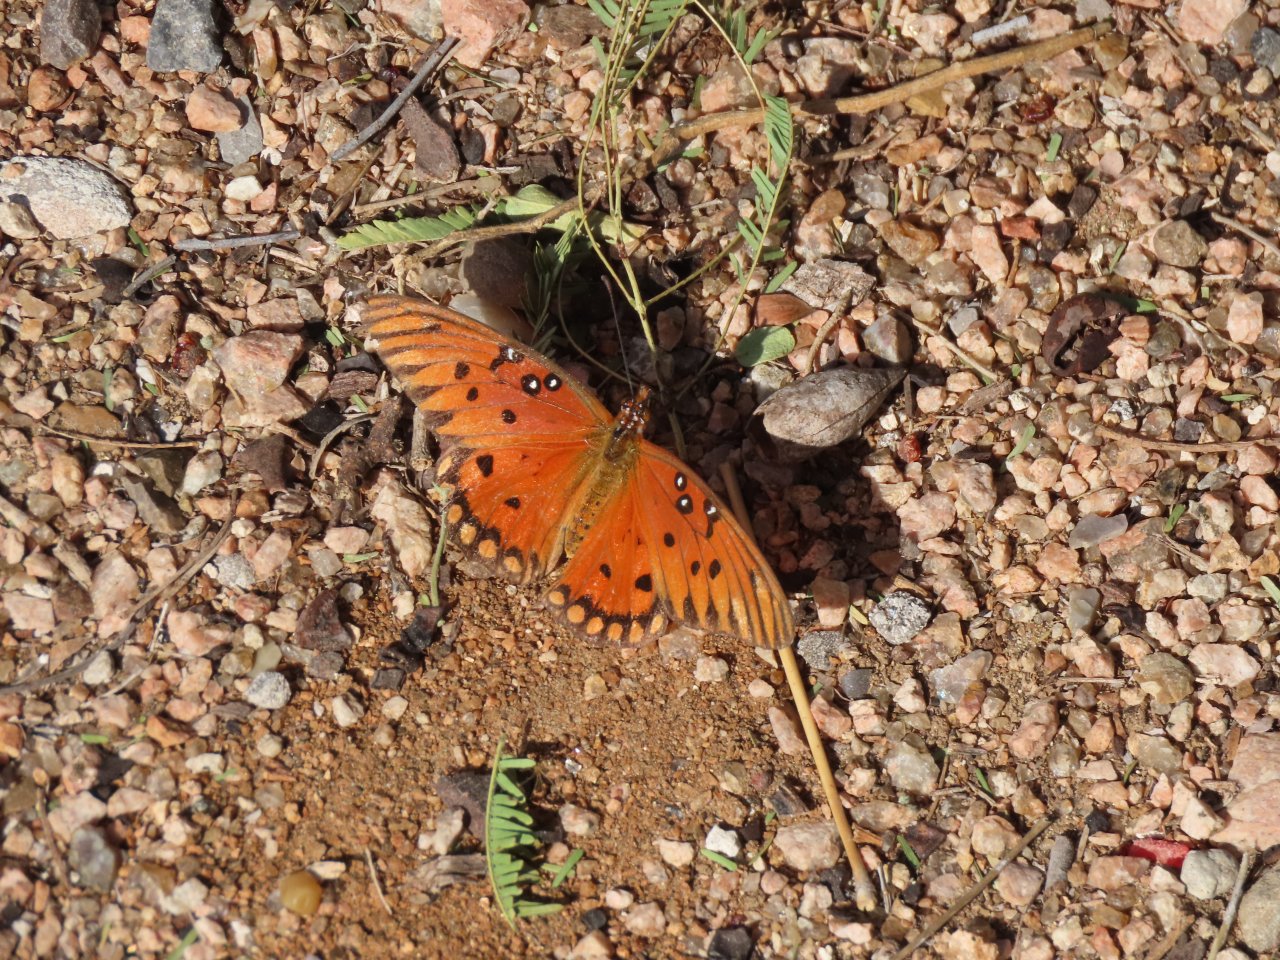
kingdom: Animalia
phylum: Arthropoda
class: Insecta
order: Lepidoptera
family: Nymphalidae
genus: Dione
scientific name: Dione vanillae
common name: Gulf Fritillary
